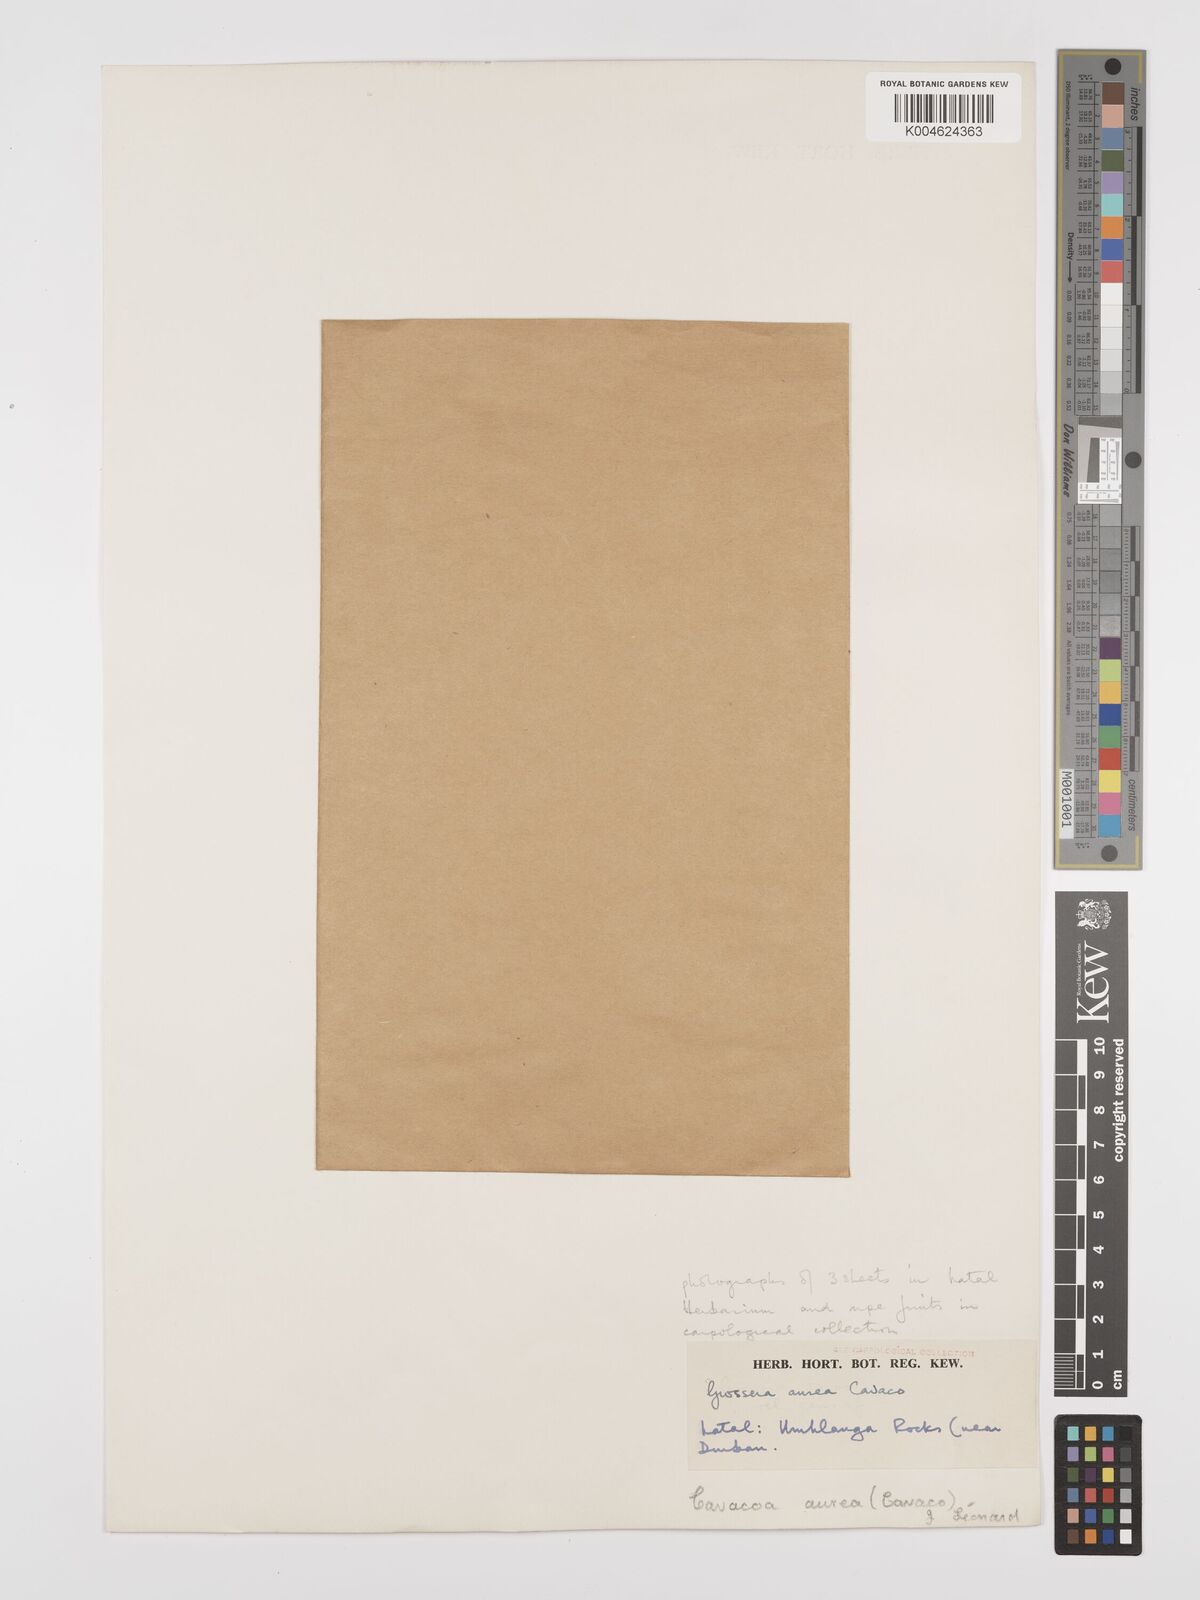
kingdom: Plantae
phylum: Tracheophyta
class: Magnoliopsida
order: Malpighiales
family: Euphorbiaceae
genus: Cavacoa
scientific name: Cavacoa aurea
